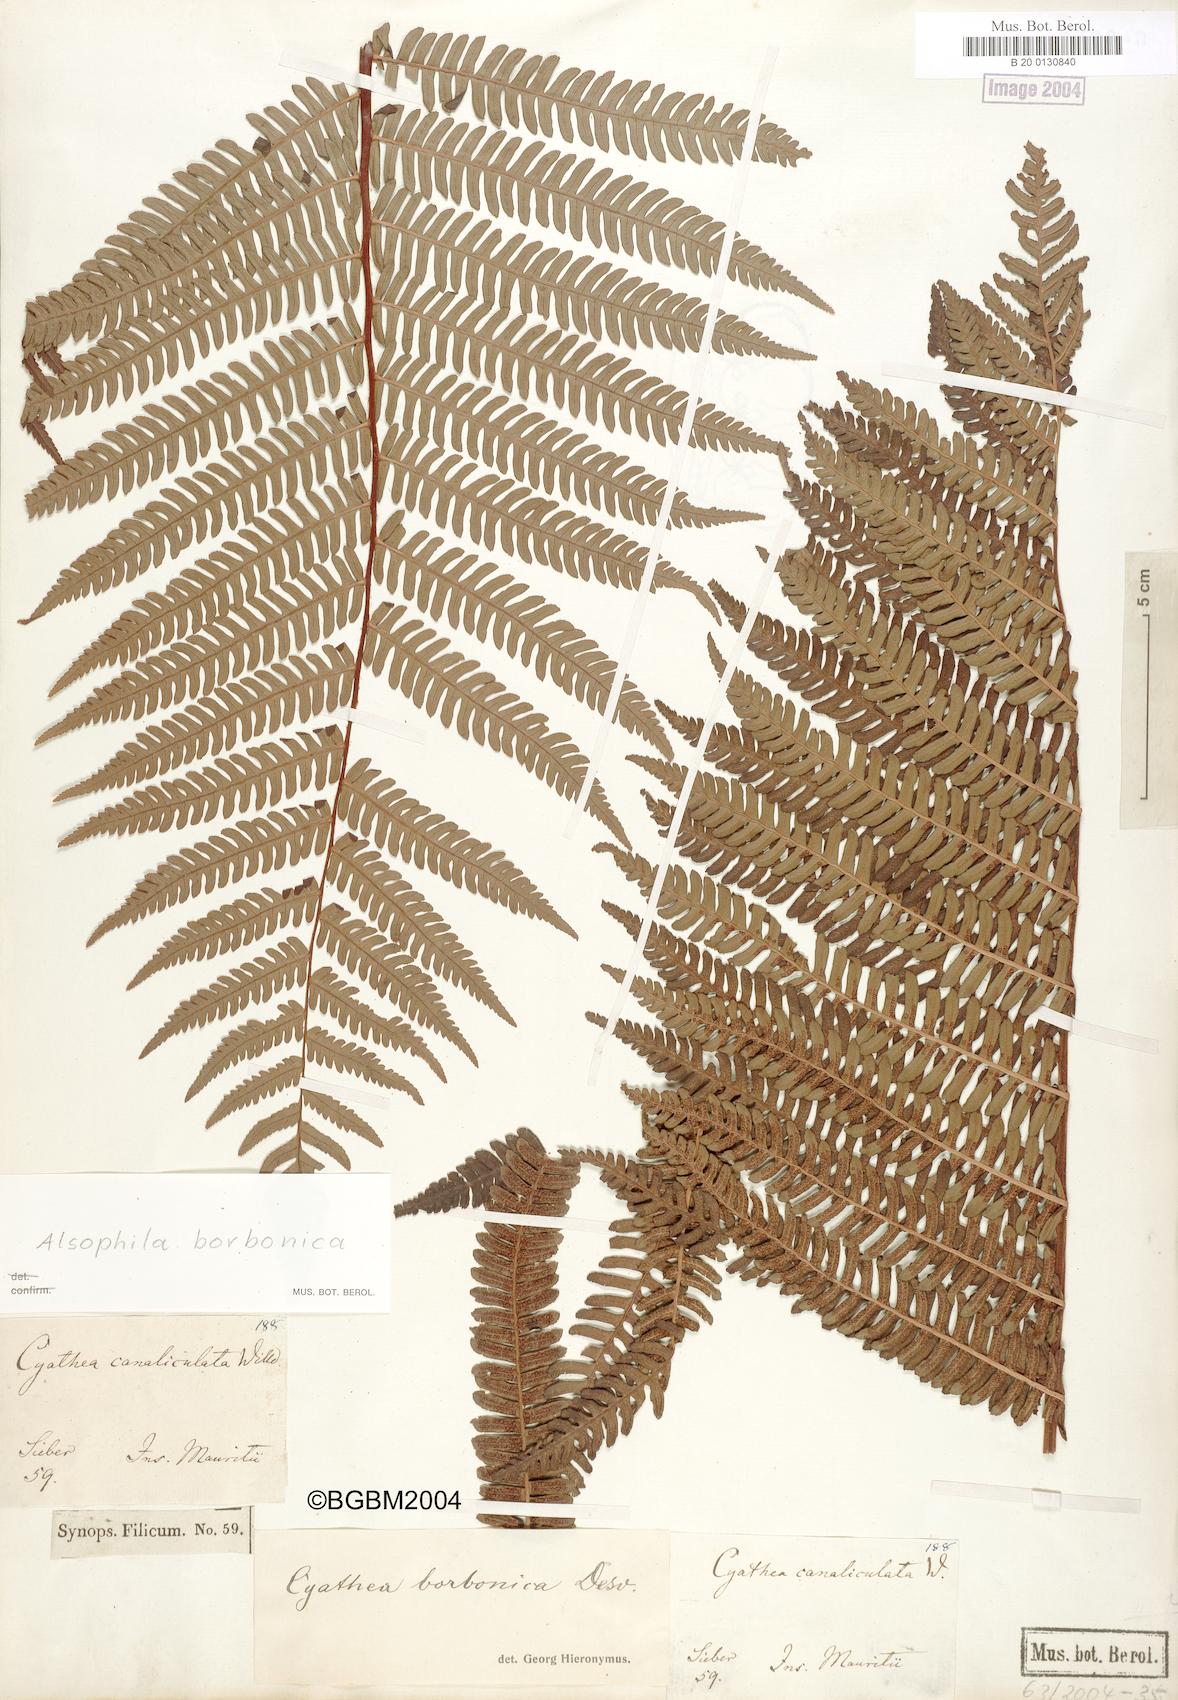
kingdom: Plantae
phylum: Tracheophyta
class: Polypodiopsida
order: Cyatheales
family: Cyatheaceae
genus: Alsophila
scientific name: Alsophila borbonica
